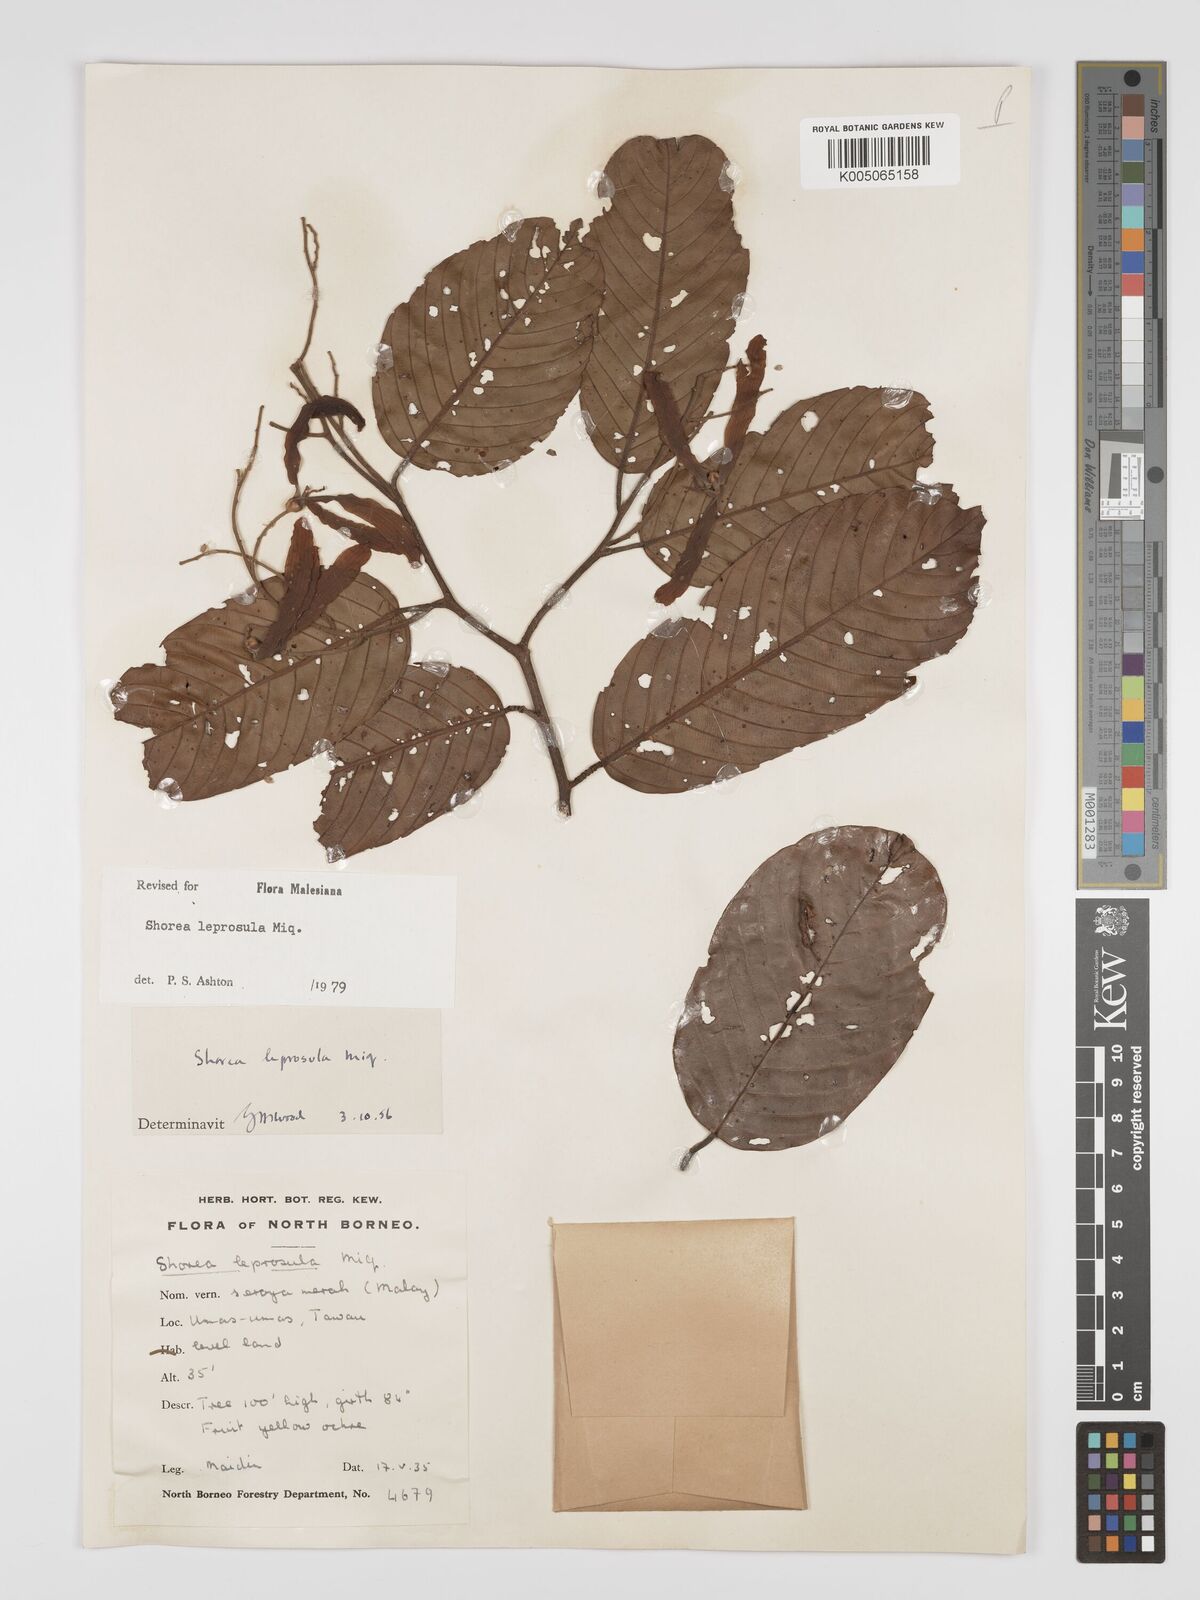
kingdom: Plantae
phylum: Tracheophyta
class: Magnoliopsida
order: Malvales
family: Dipterocarpaceae
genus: Shorea
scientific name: Shorea leprosula
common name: Light red meranti
